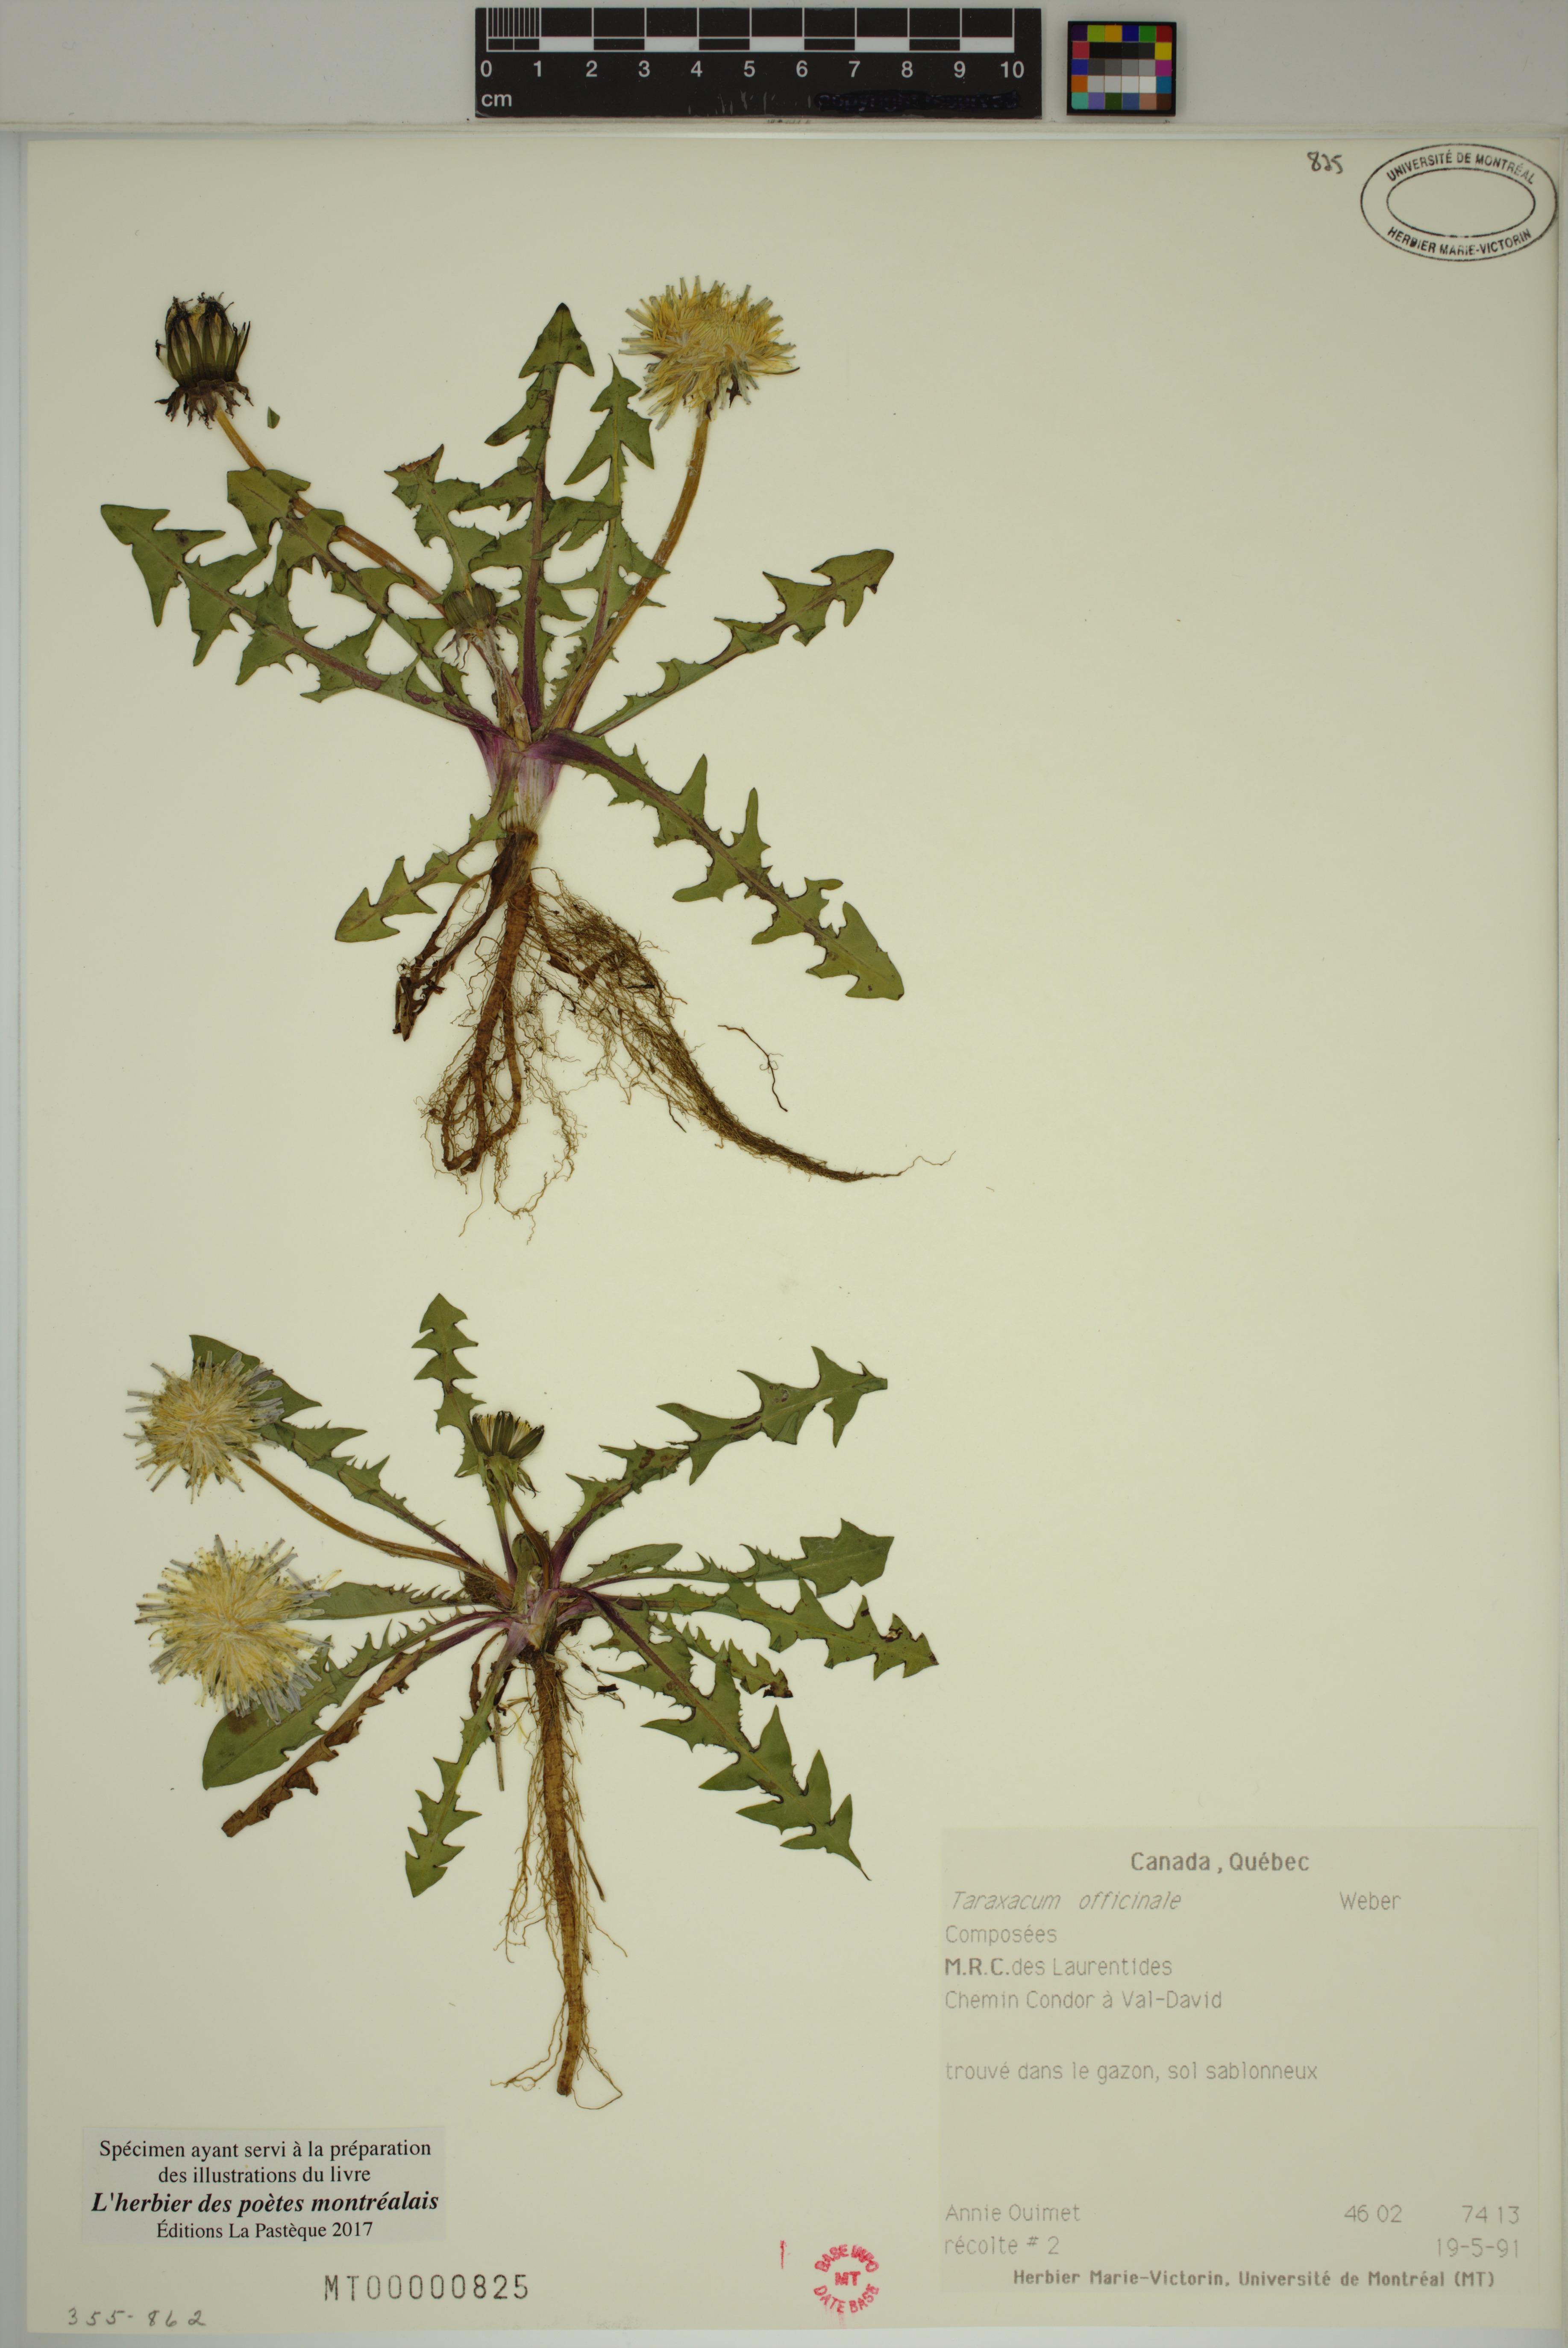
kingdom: Plantae
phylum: Tracheophyta
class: Magnoliopsida
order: Asterales
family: Asteraceae
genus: Taraxacum
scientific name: Taraxacum officinale
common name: Common dandelion
